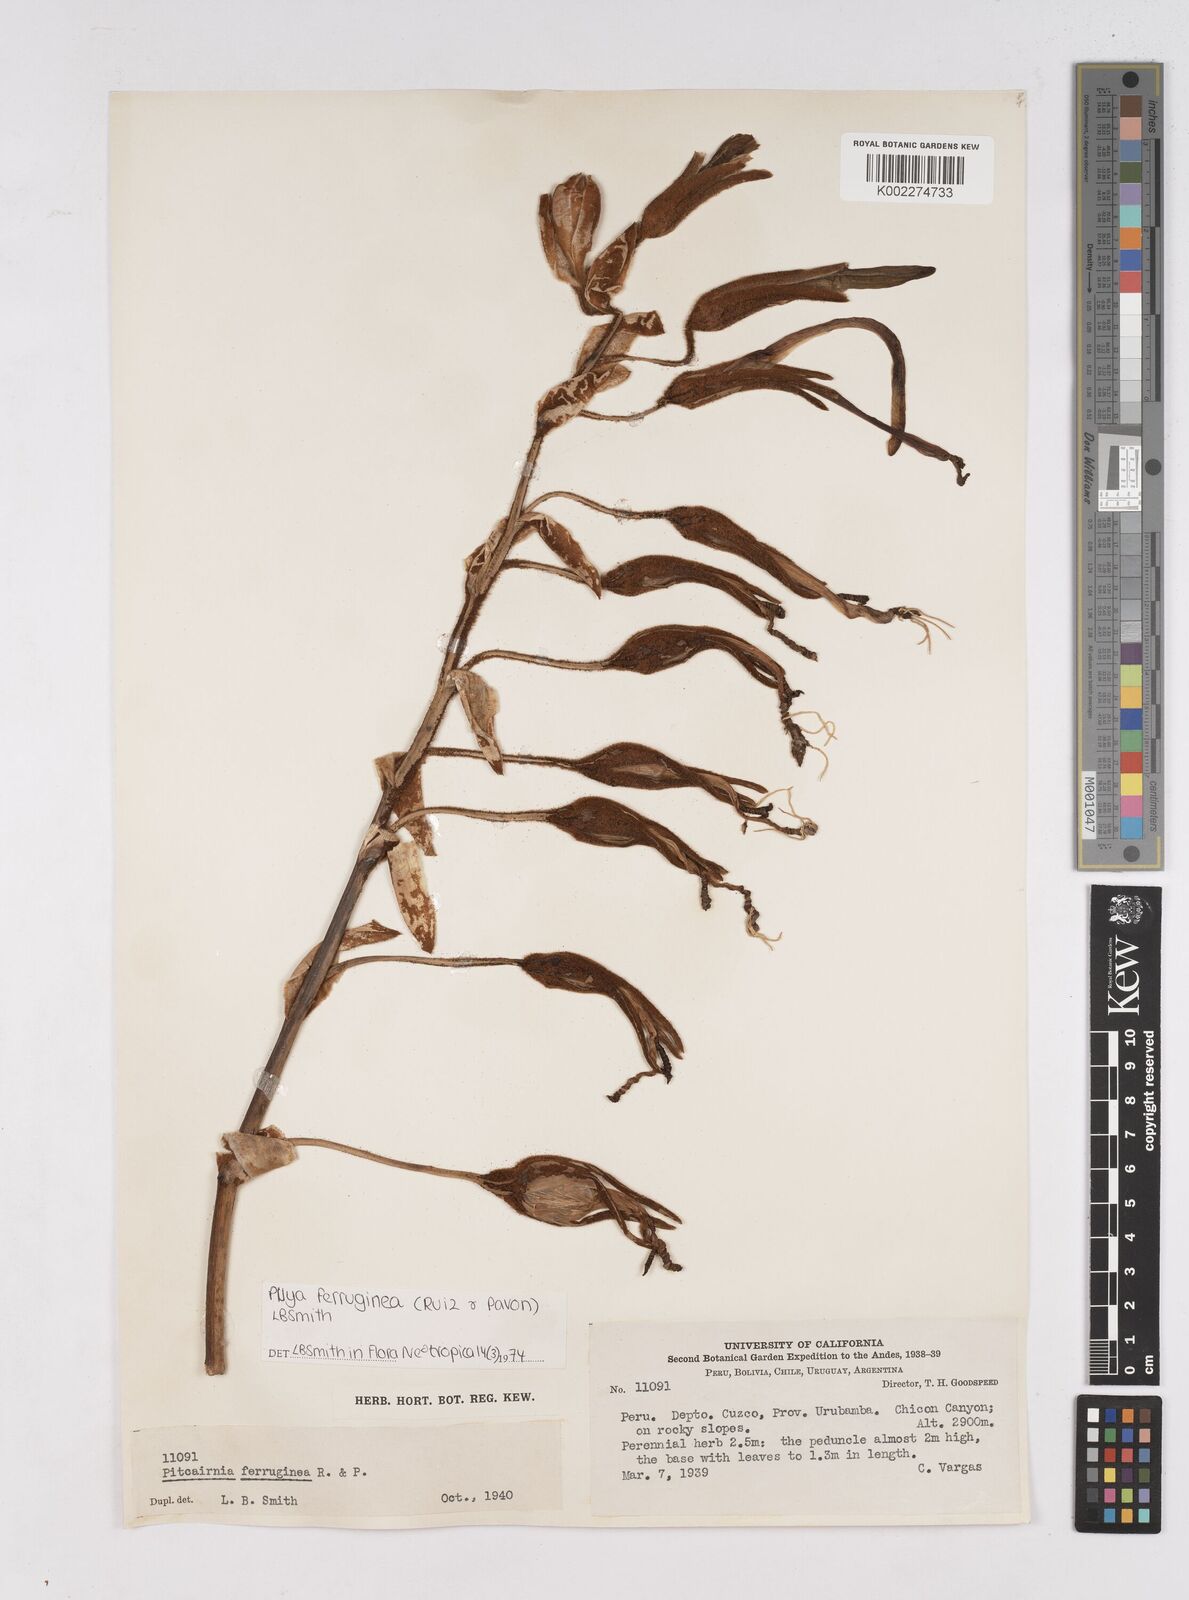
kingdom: Plantae
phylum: Tracheophyta
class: Liliopsida
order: Poales
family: Bromeliaceae
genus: Puya
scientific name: Puya ferruginea
